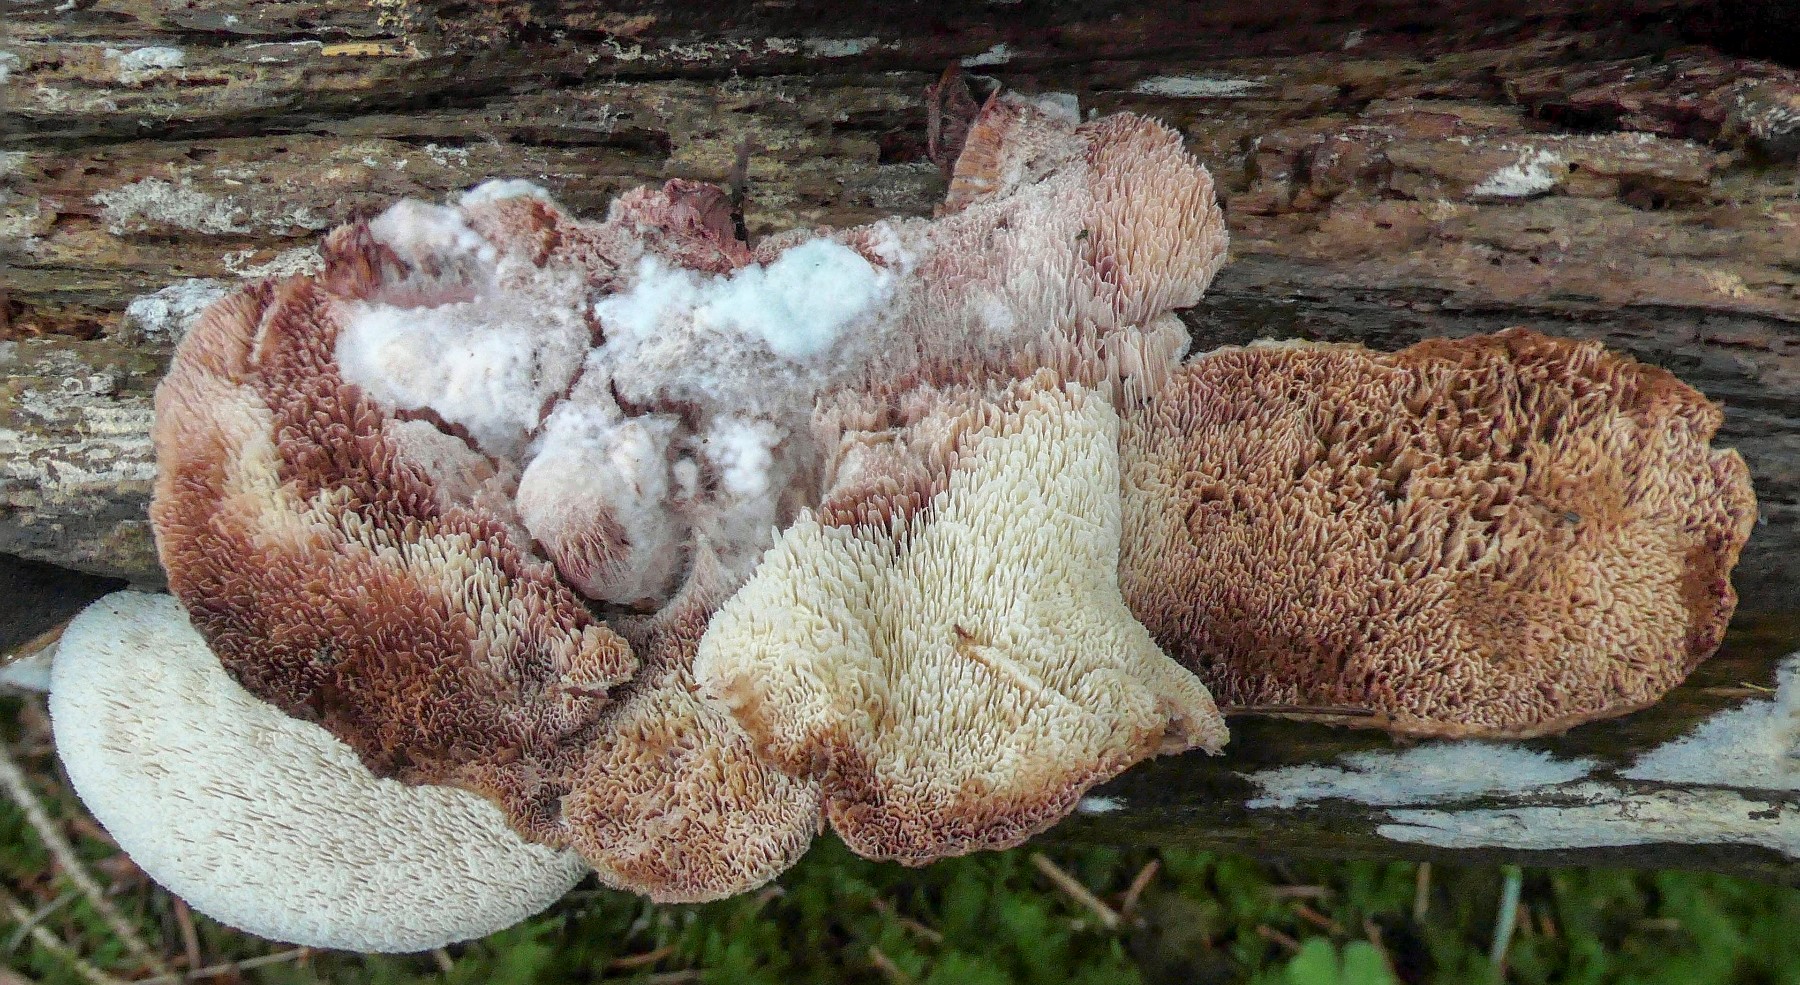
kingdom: Fungi
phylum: Basidiomycota
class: Agaricomycetes
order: Polyporales
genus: Fuscopostia
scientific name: Fuscopostia fragilis
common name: brunende kødporesvamp
